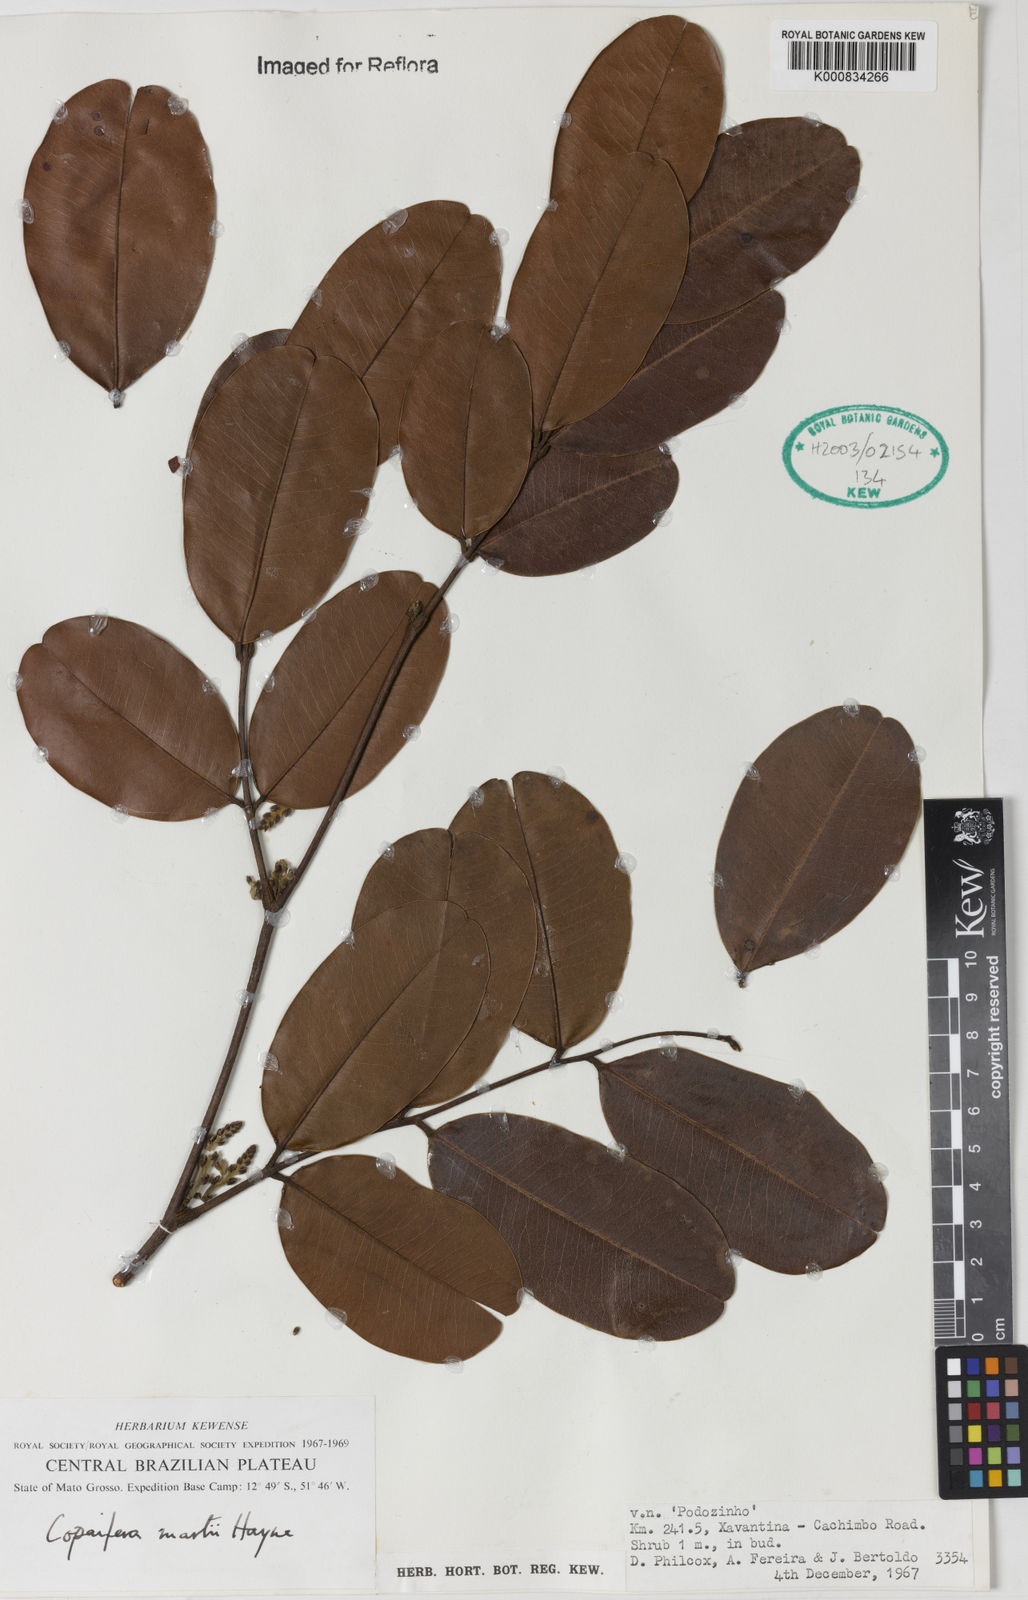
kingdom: Plantae
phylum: Tracheophyta
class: Magnoliopsida
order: Fabales
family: Fabaceae
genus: Copaifera
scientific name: Copaifera martii
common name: Copaiba
